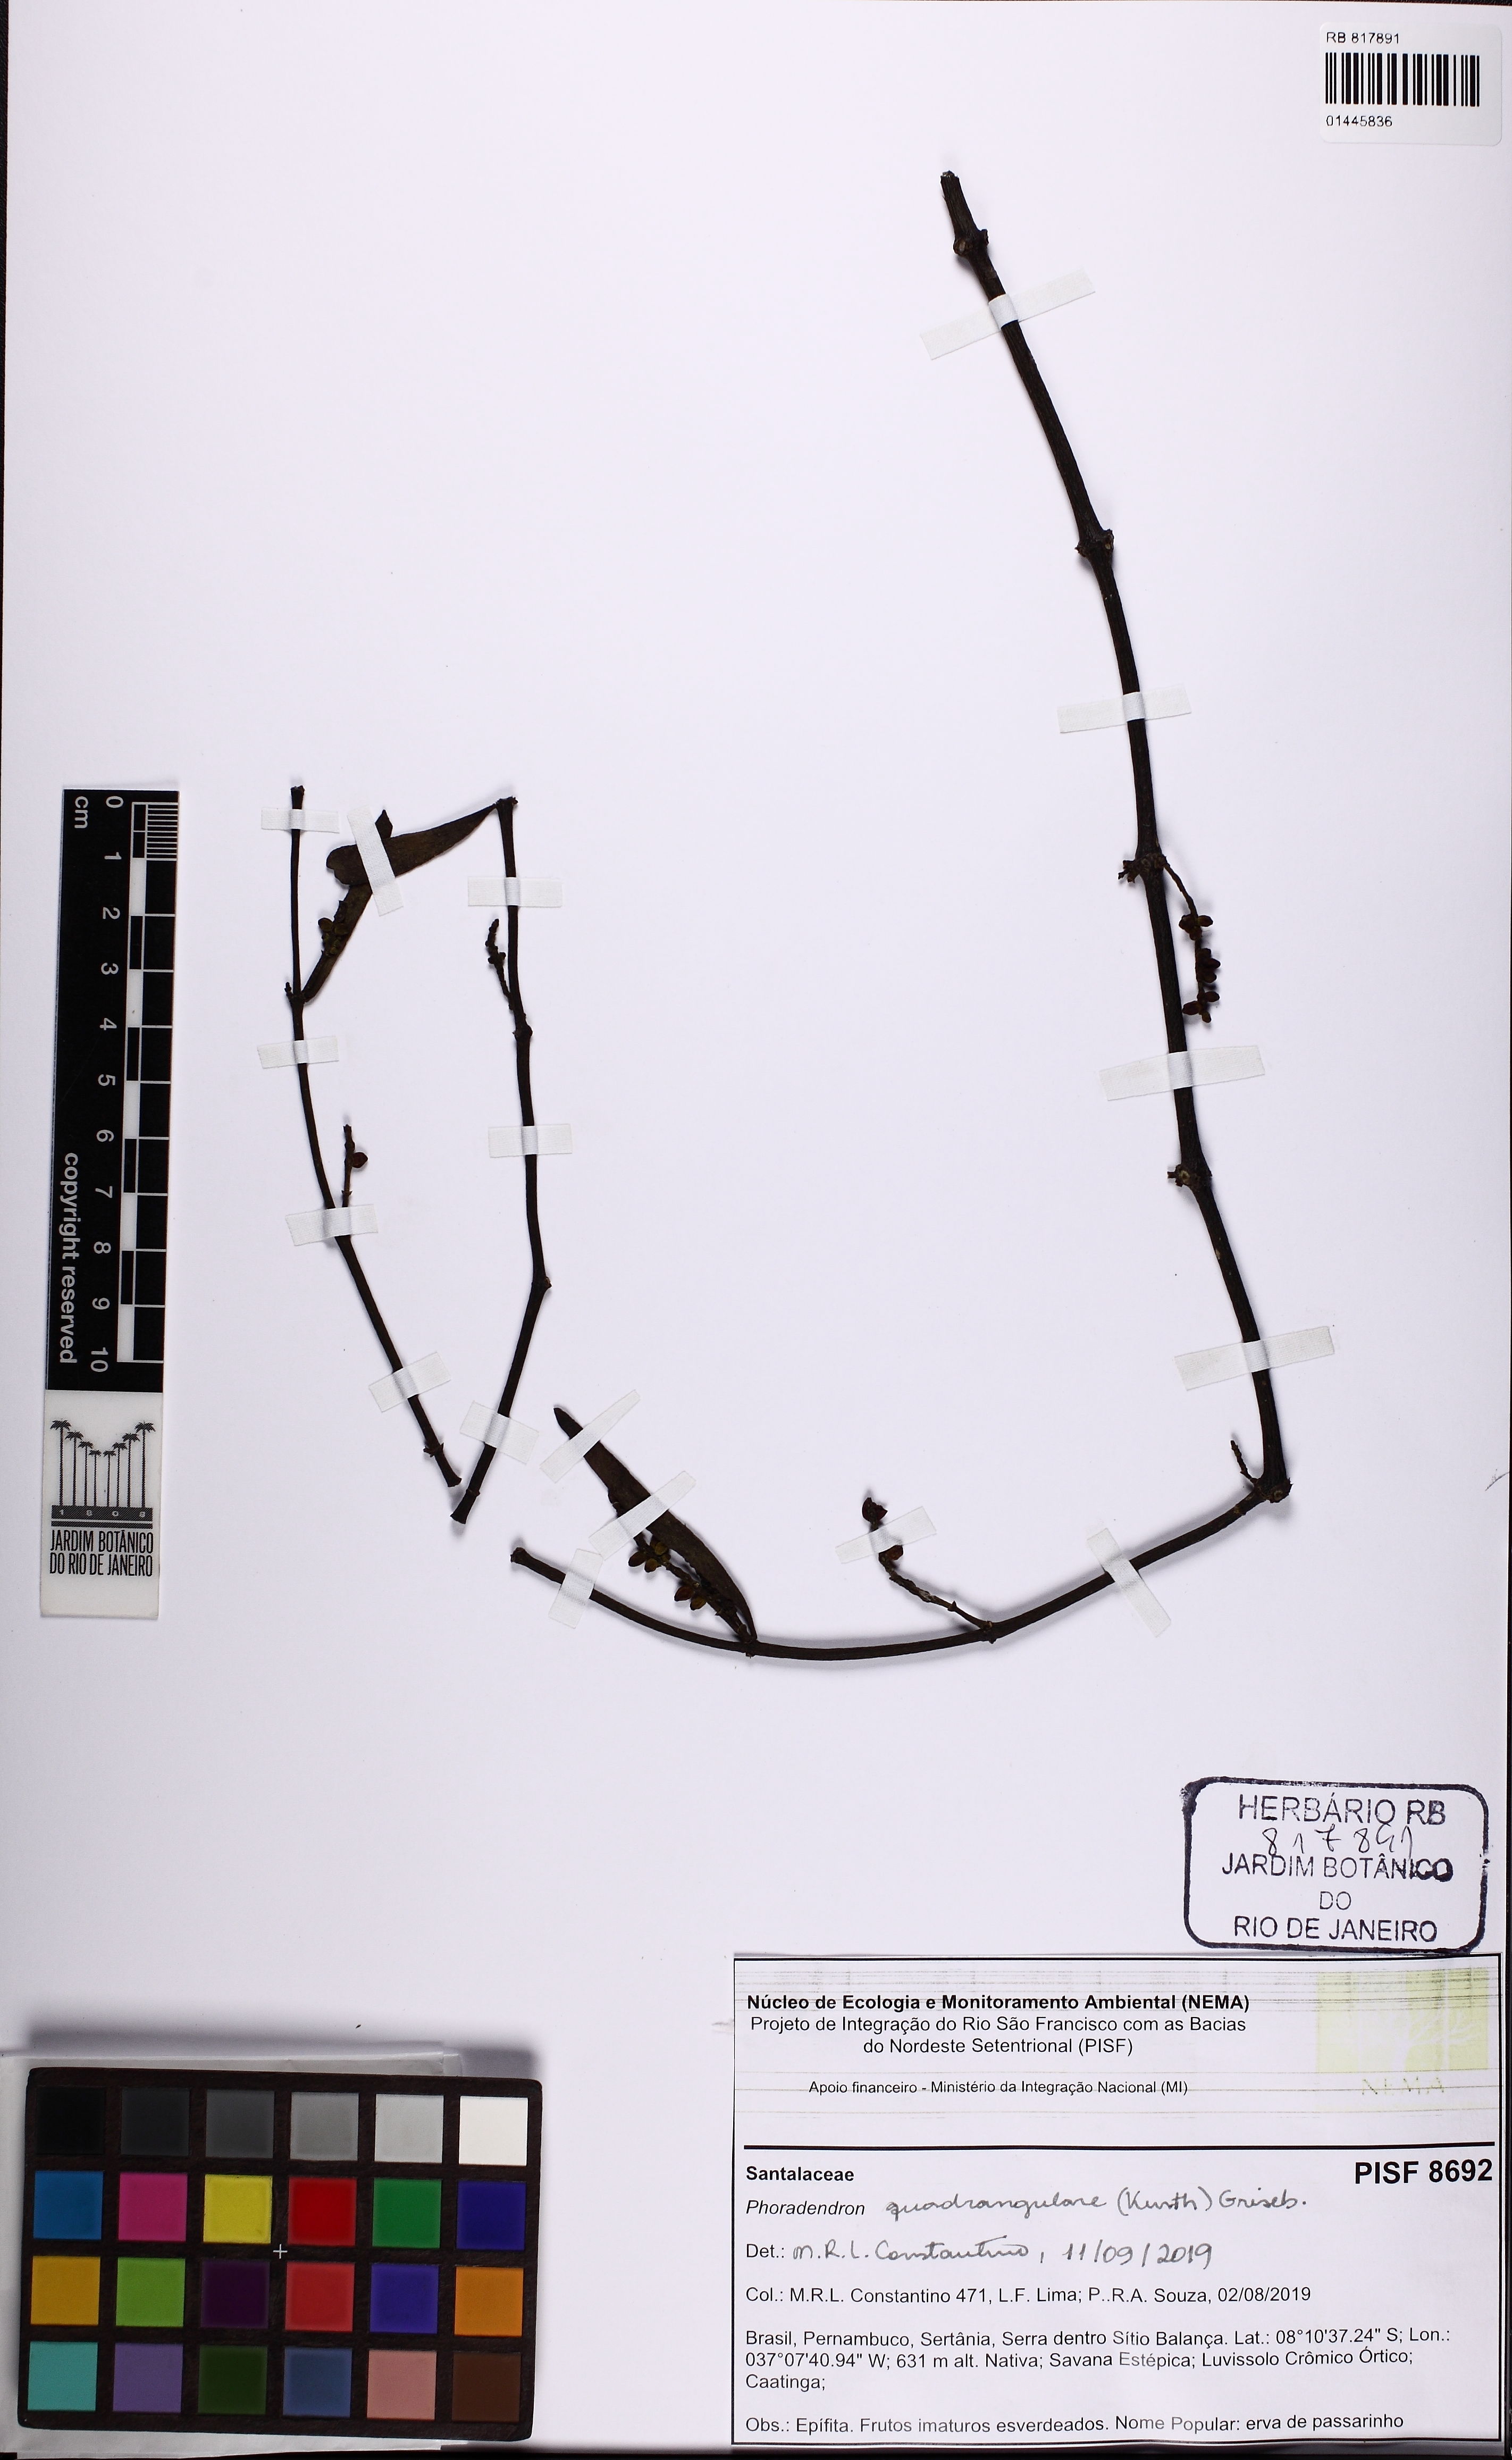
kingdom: Plantae
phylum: Tracheophyta
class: Magnoliopsida
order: Santalales
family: Viscaceae
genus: Phoradendron
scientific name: Phoradendron quadrangulare
